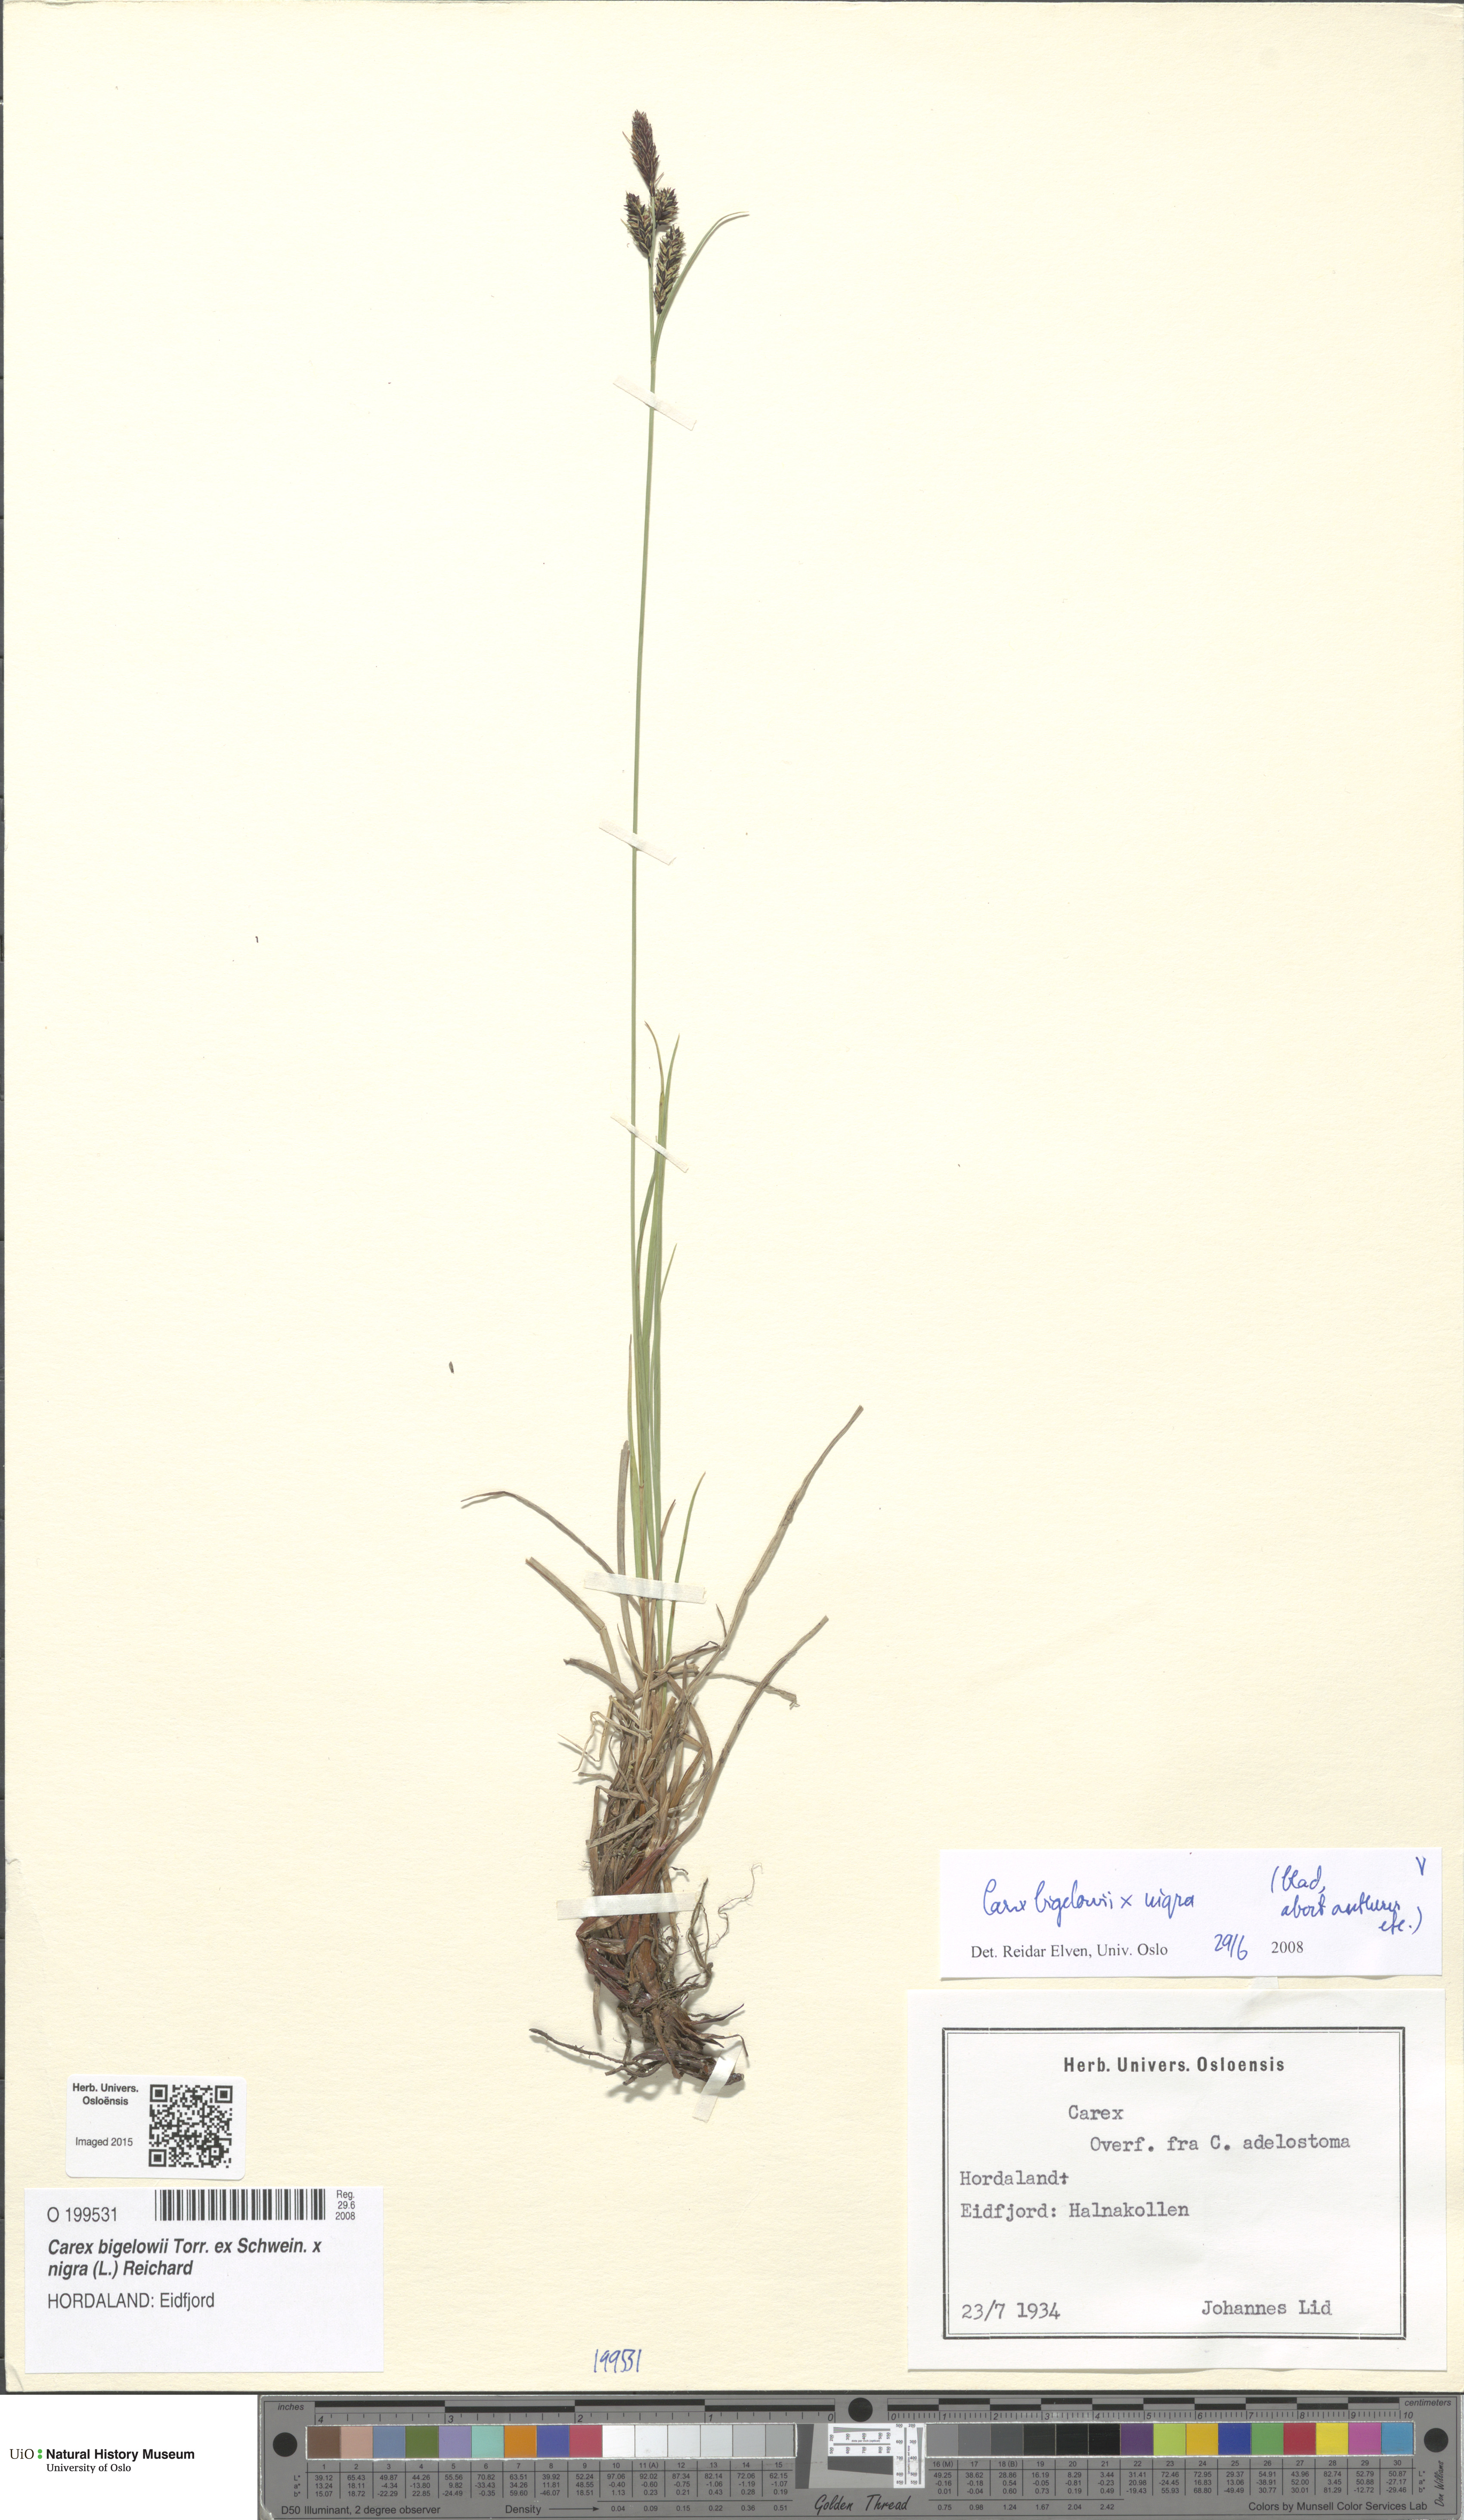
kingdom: Plantae
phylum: Tracheophyta
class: Liliopsida
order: Poales
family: Cyperaceae
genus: Carex
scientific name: Carex
